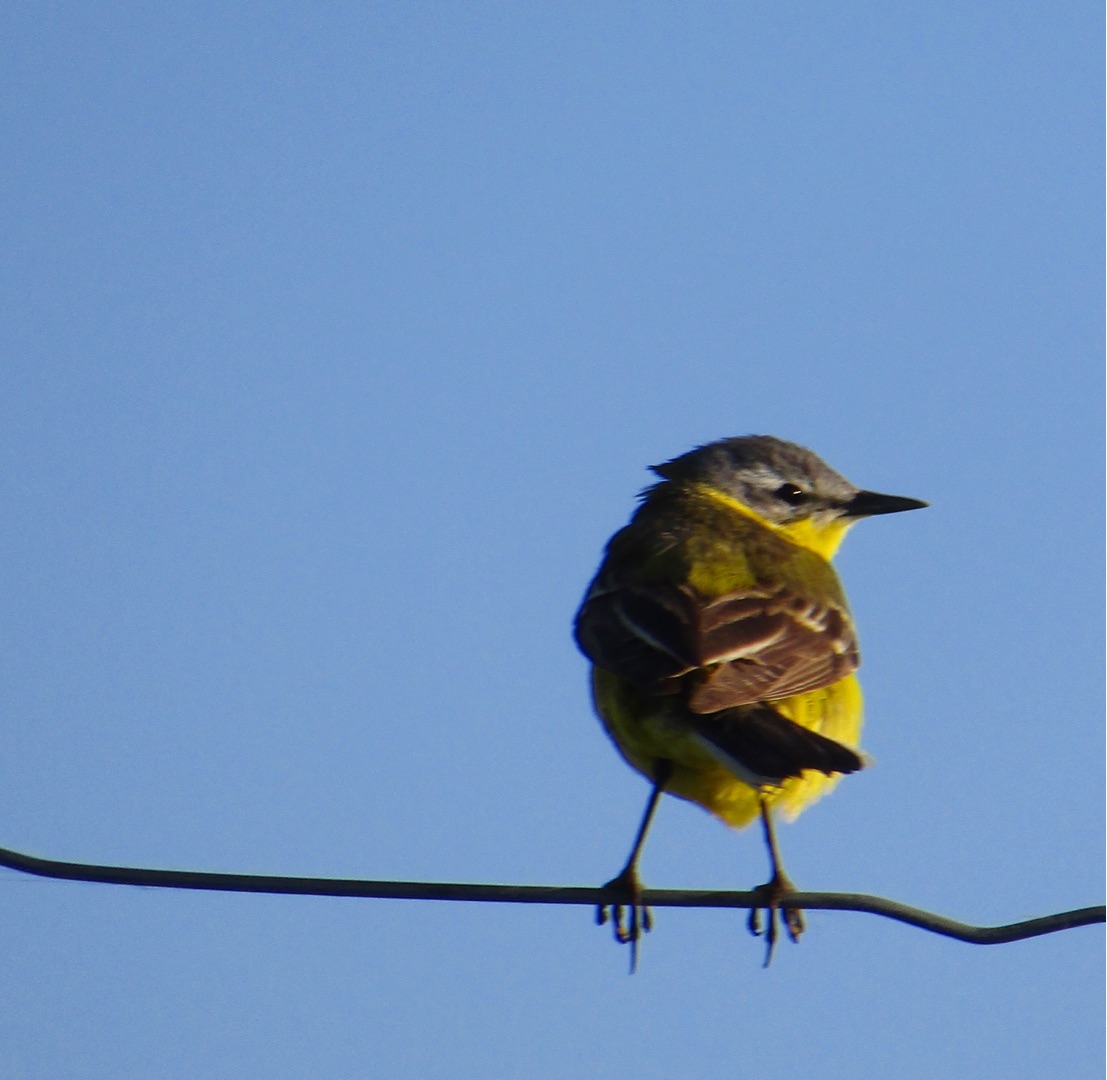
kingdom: Animalia
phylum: Chordata
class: Aves
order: Passeriformes
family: Motacillidae
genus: Motacilla
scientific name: Motacilla flava
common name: Gul vipstjert
